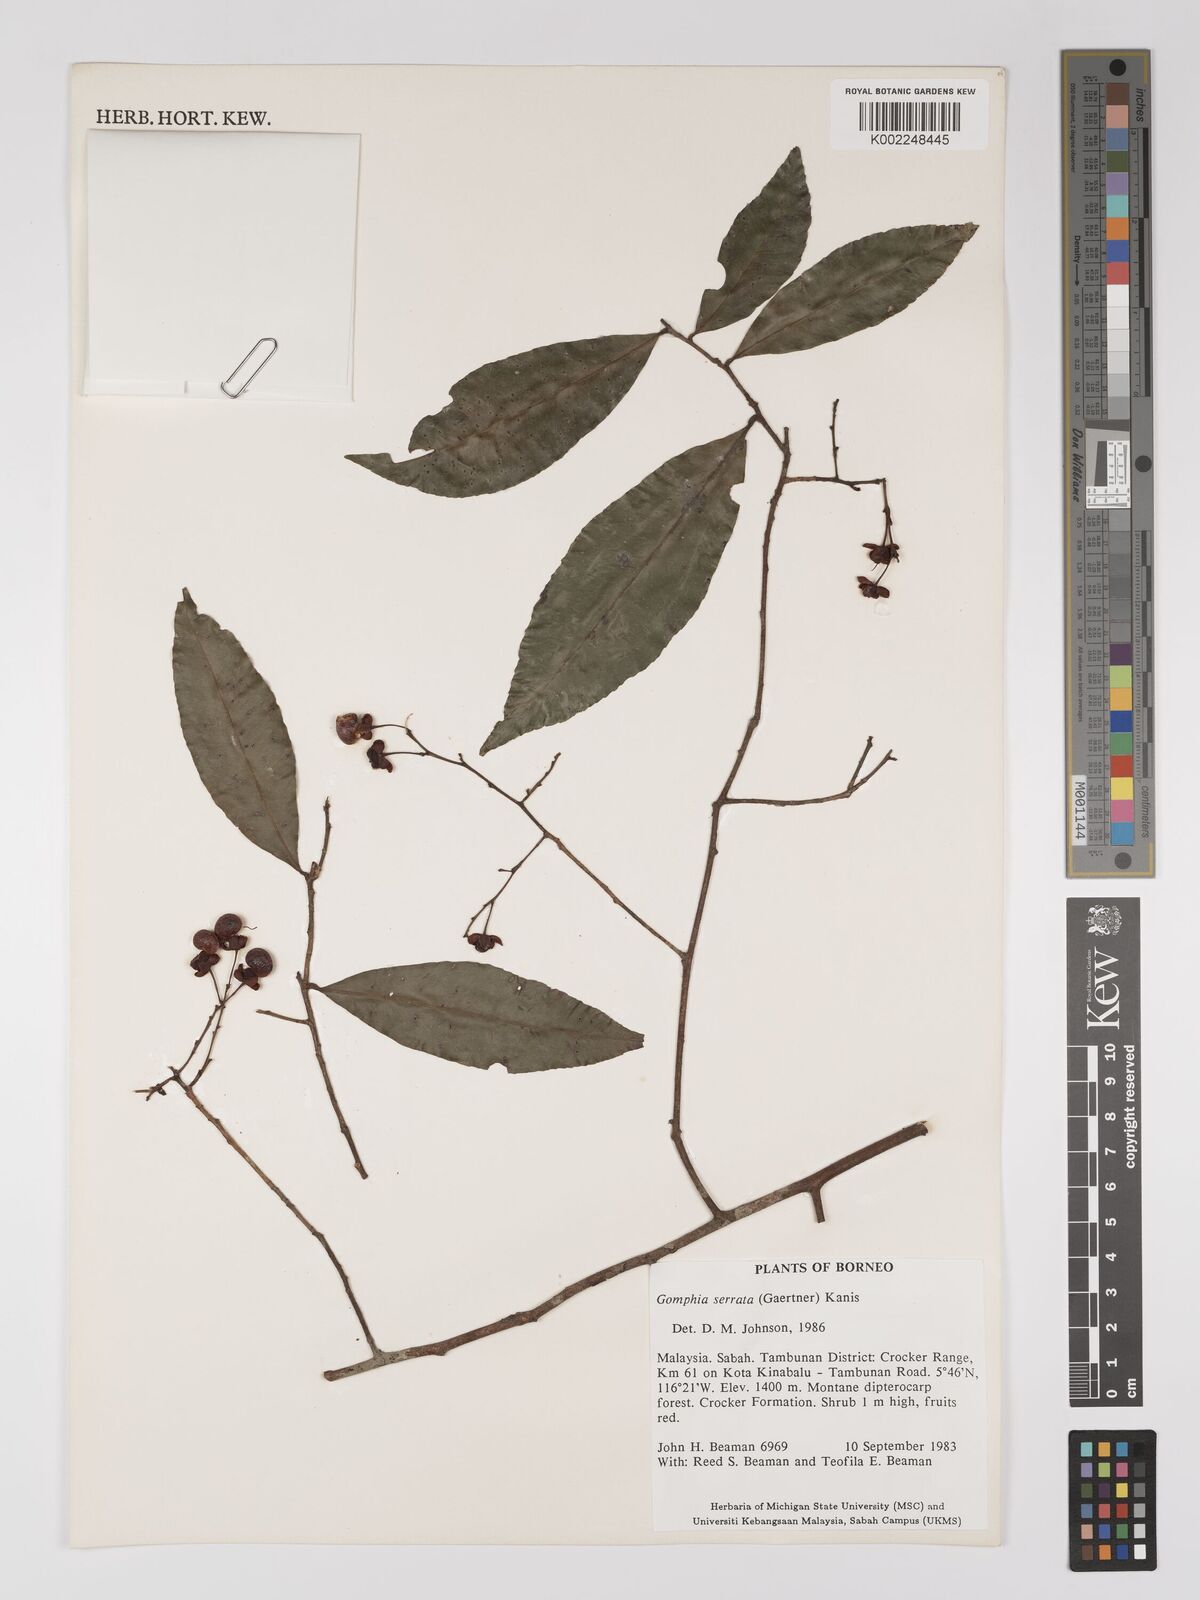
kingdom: Plantae
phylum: Tracheophyta
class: Magnoliopsida
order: Malpighiales
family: Ochnaceae
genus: Gomphia
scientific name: Gomphia serrata
